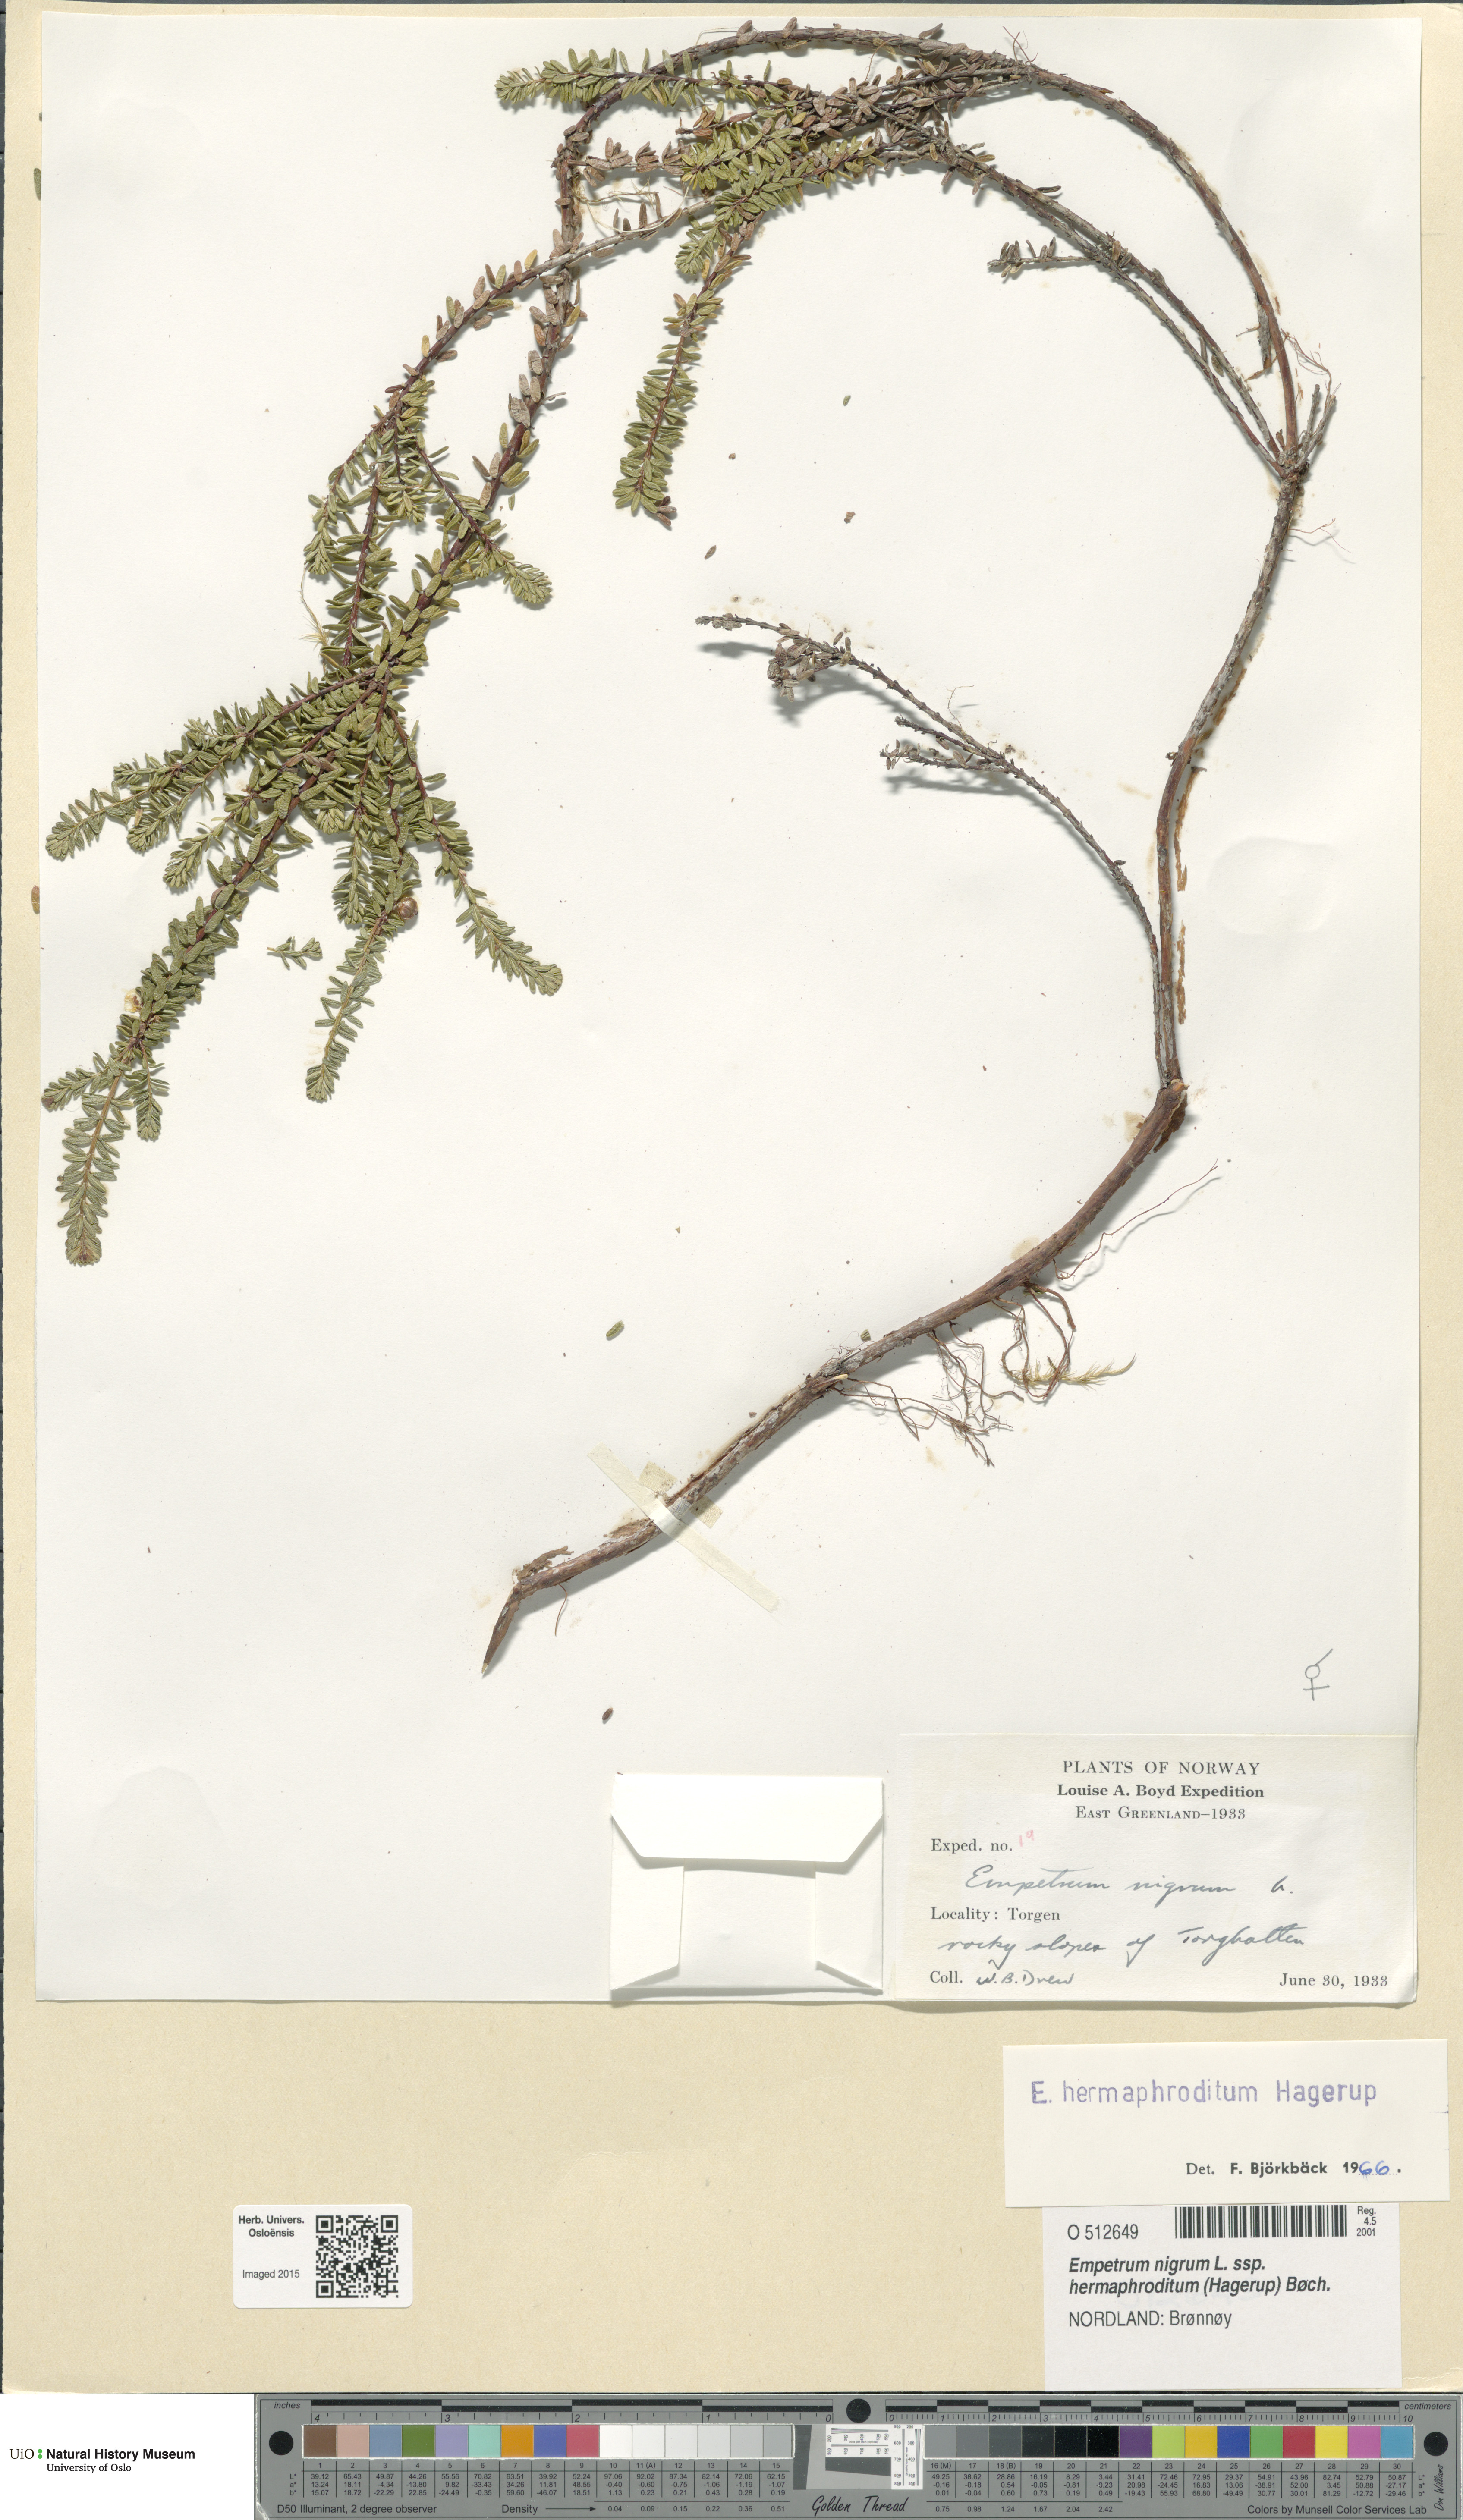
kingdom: Plantae
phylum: Tracheophyta
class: Magnoliopsida
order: Ericales
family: Ericaceae
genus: Empetrum
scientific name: Empetrum hermaphroditum
